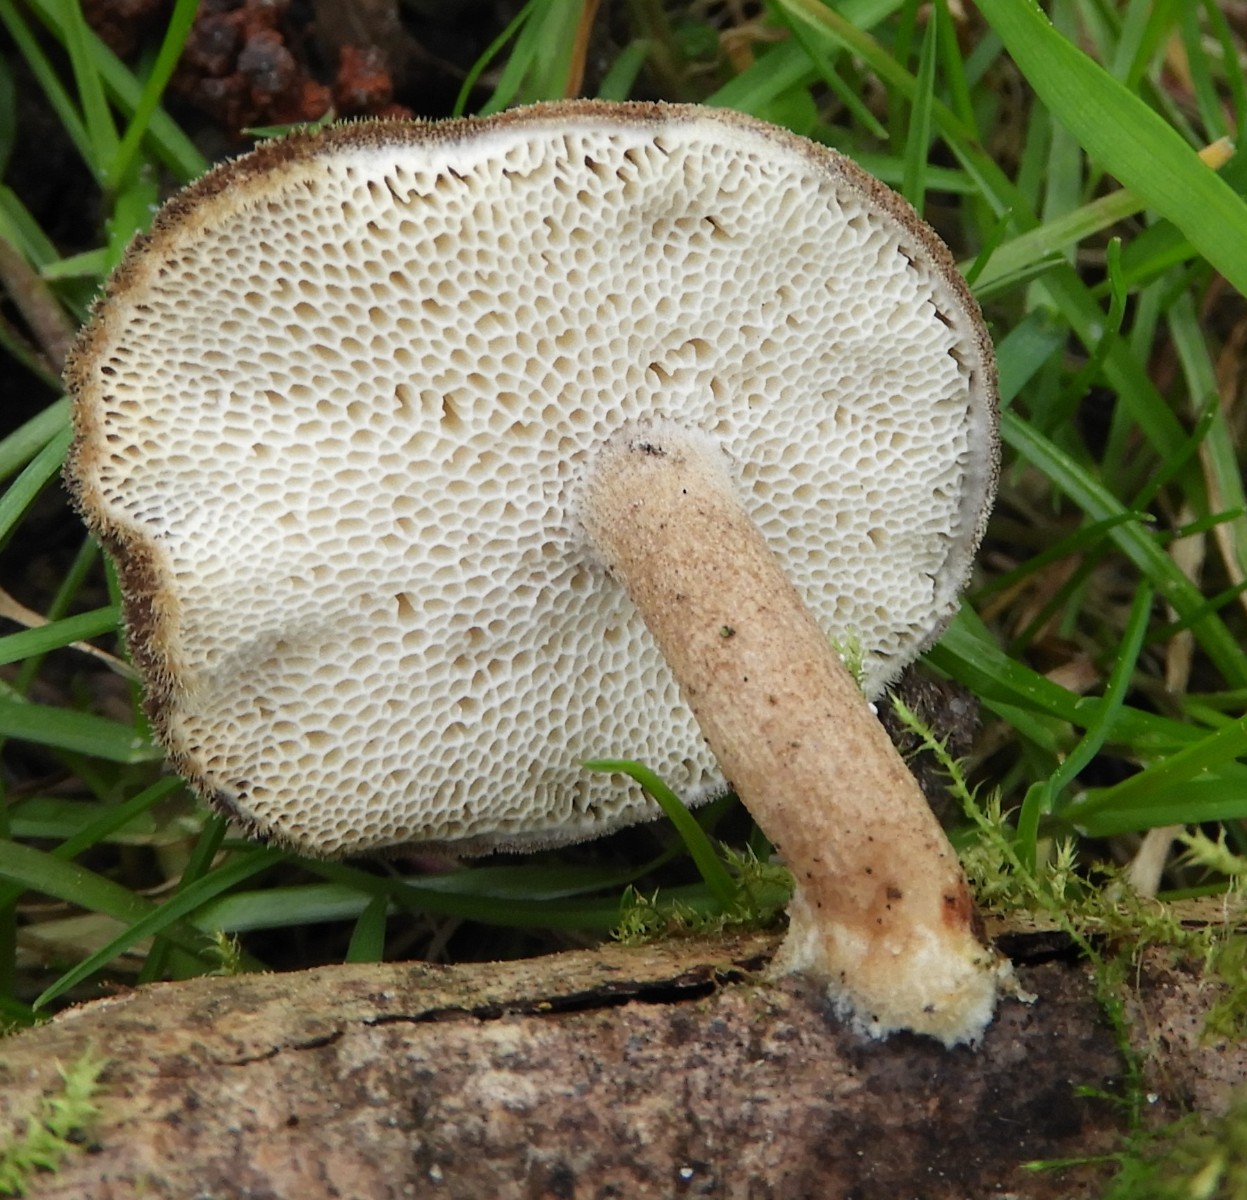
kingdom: Fungi
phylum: Basidiomycota
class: Agaricomycetes
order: Polyporales
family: Polyporaceae
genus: Lentinus
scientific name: Lentinus brumalis
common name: vinter-stilkporesvamp
